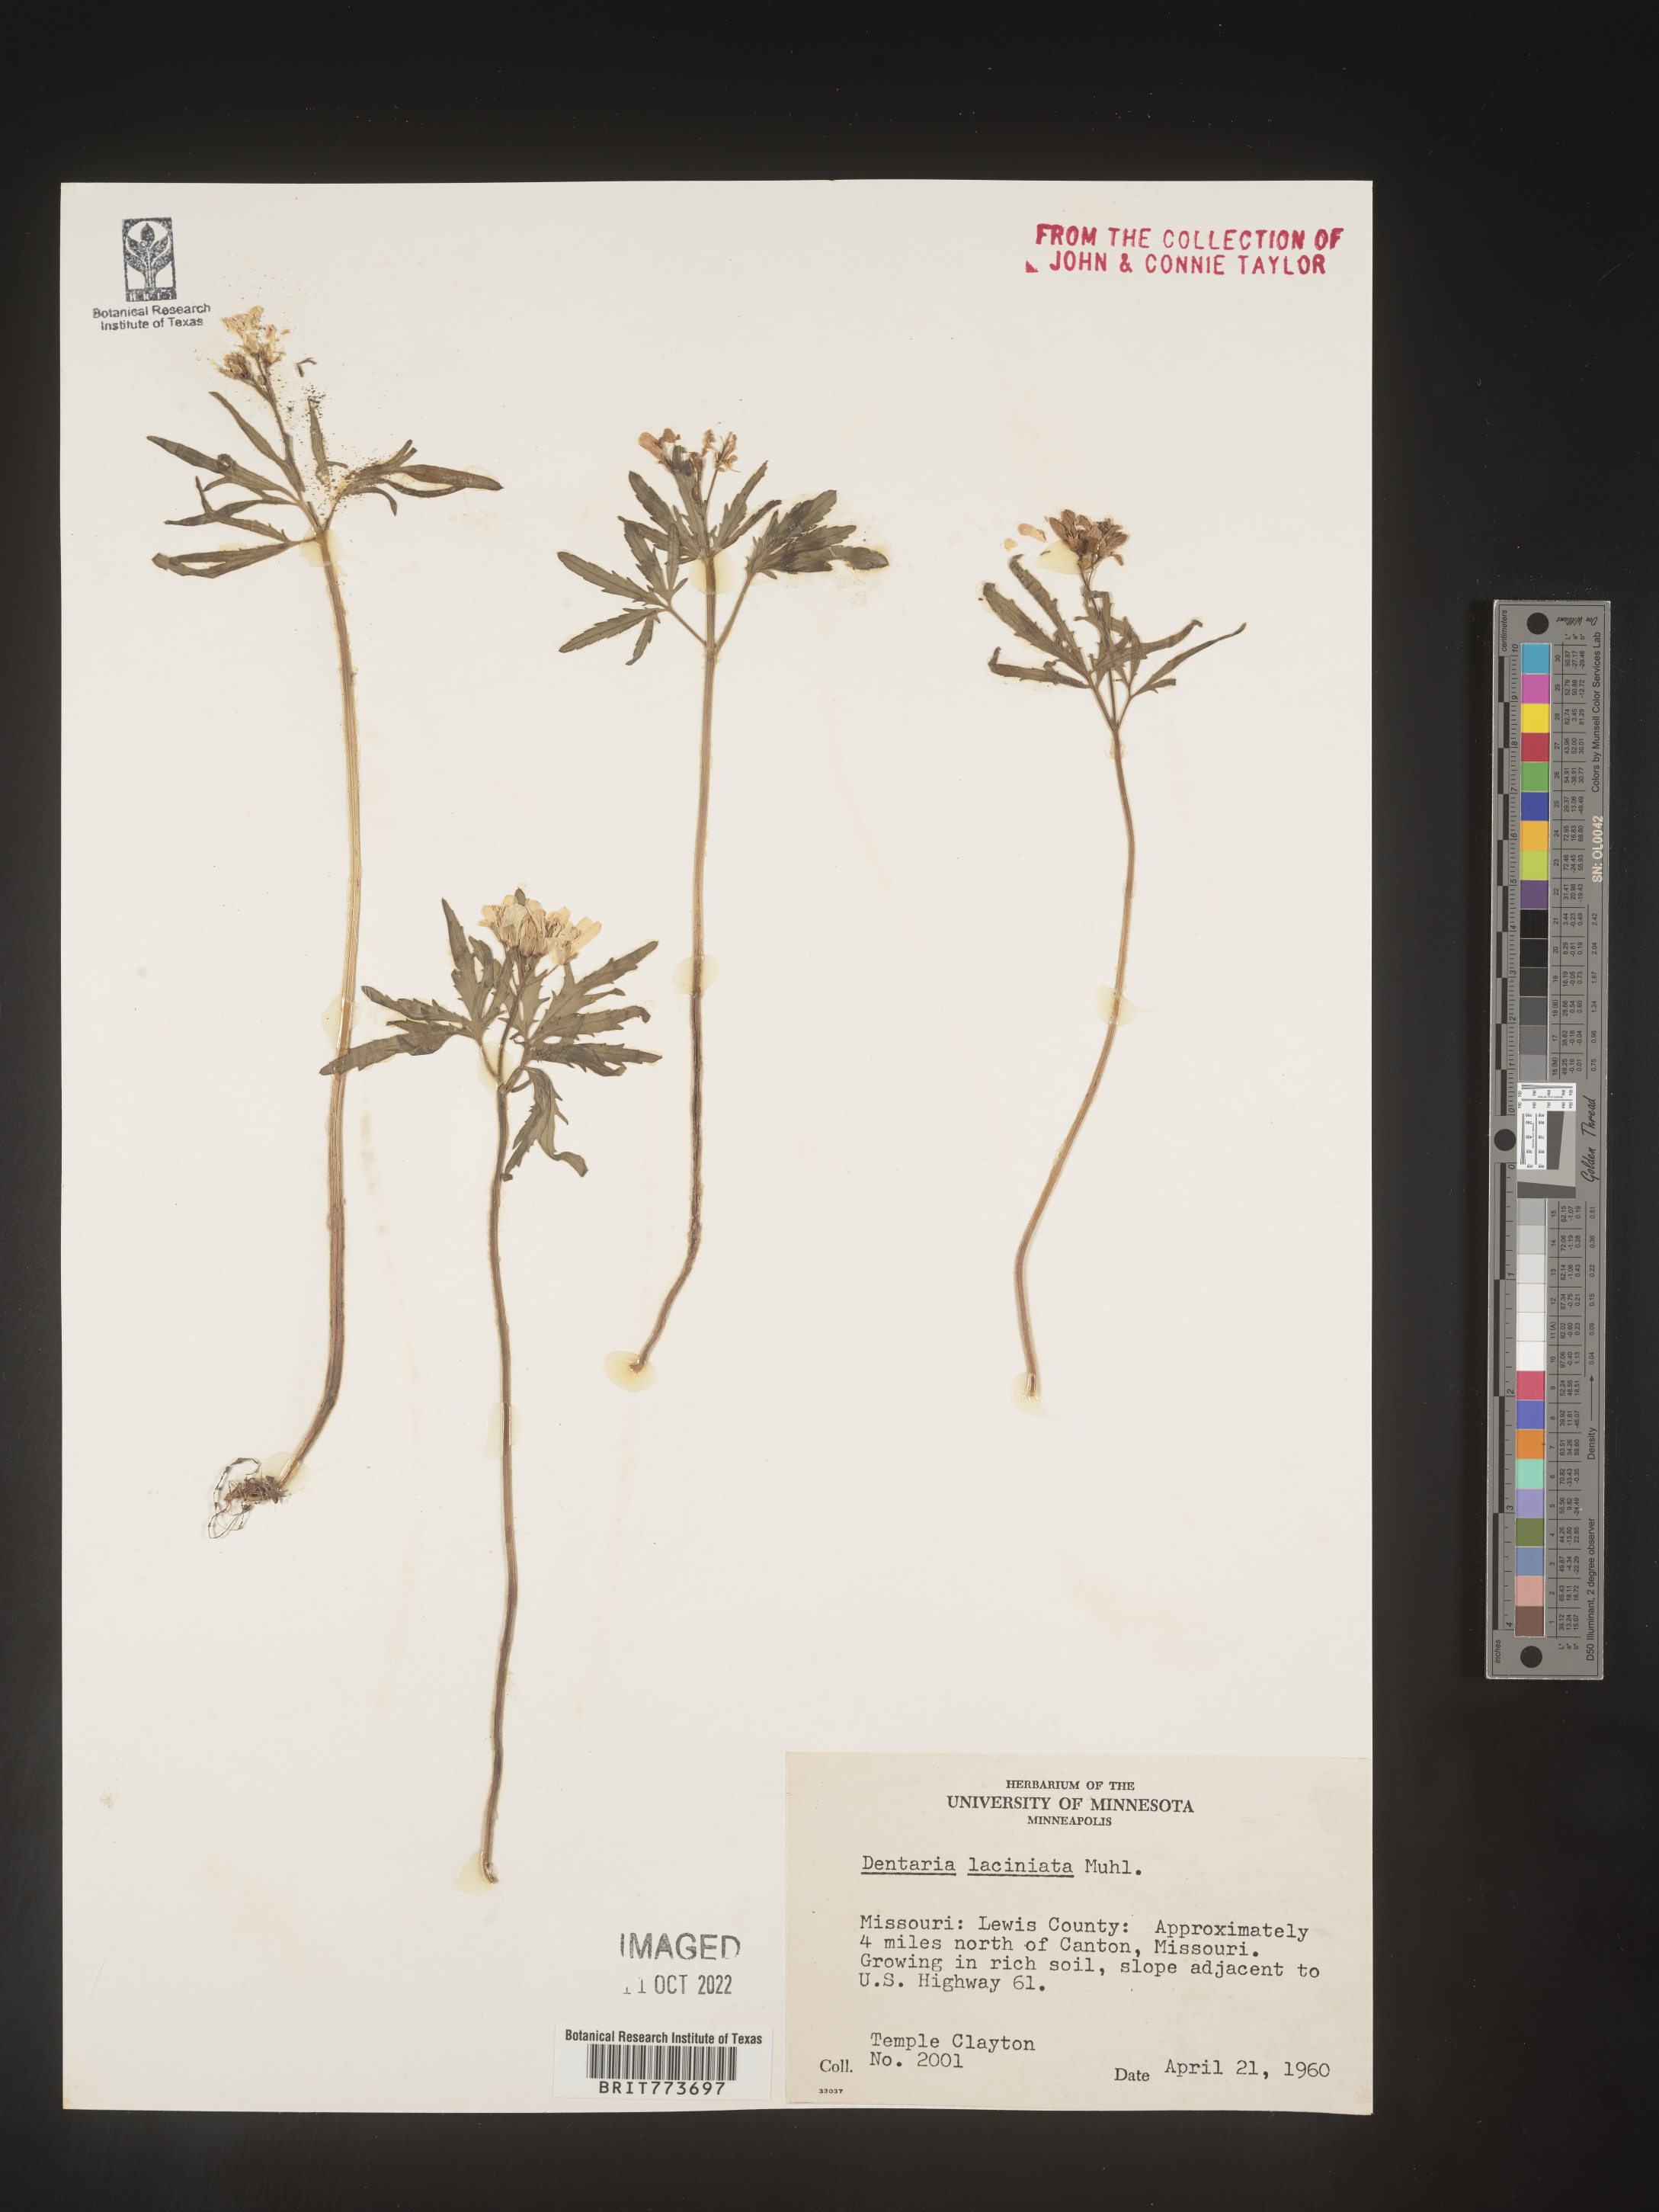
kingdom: Plantae
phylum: Tracheophyta
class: Magnoliopsida
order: Brassicales
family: Brassicaceae
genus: Rorippa
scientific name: Rorippa laciniata
